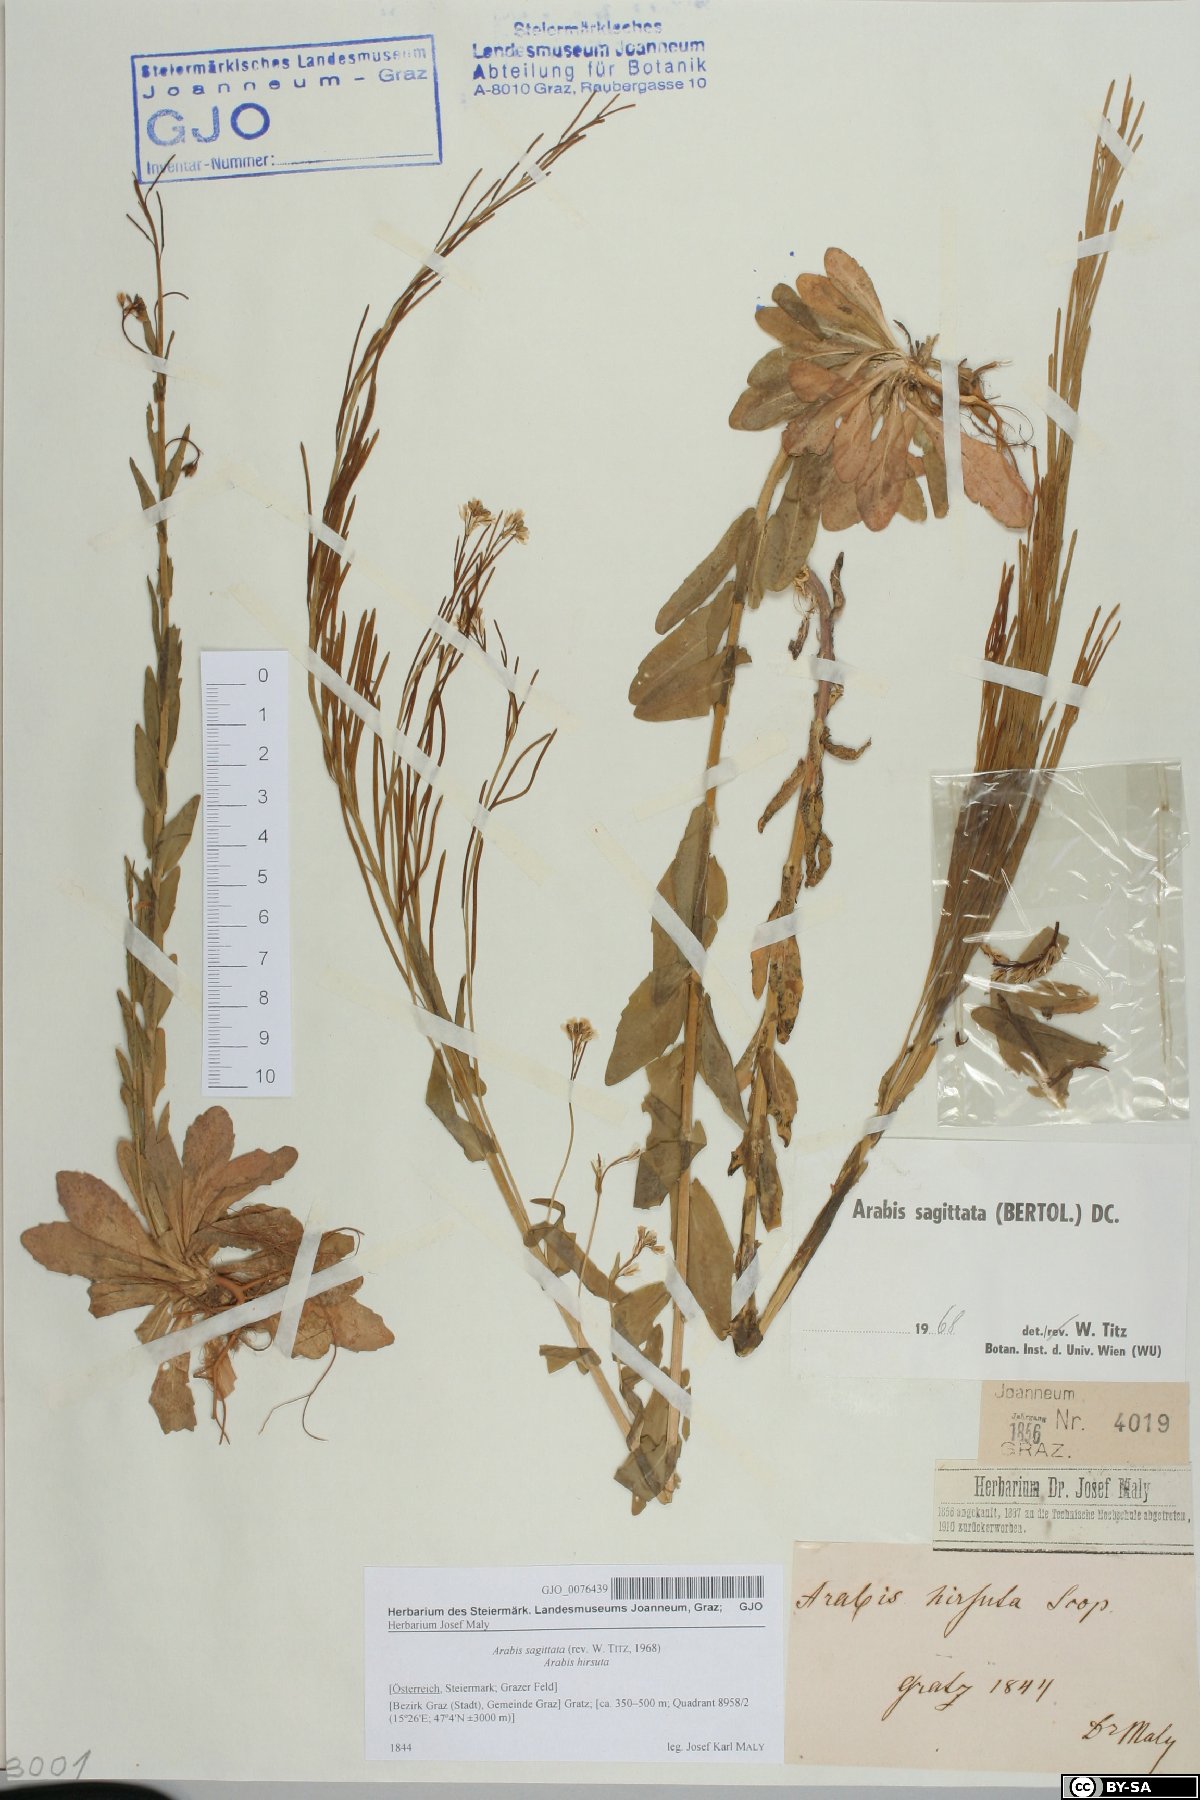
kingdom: Plantae
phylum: Tracheophyta
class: Magnoliopsida
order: Brassicales
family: Brassicaceae
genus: Arabis
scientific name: Arabis sagittata
